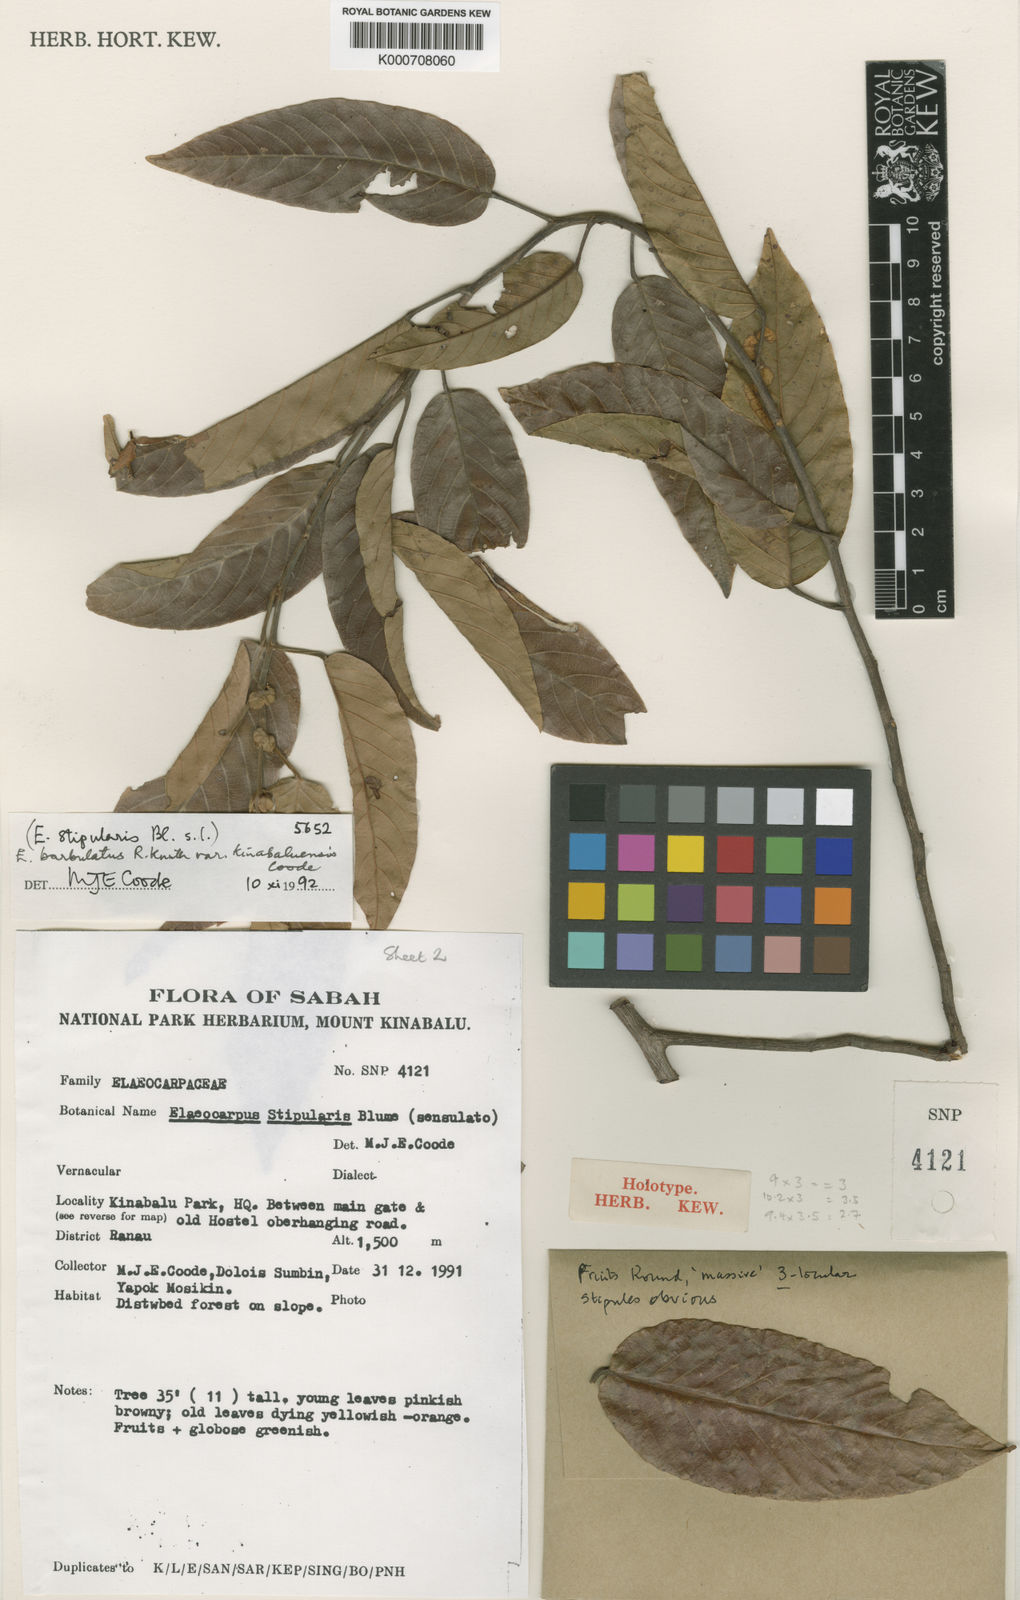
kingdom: Plantae
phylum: Tracheophyta
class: Magnoliopsida
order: Oxalidales
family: Elaeocarpaceae
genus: Elaeocarpus
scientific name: Elaeocarpus barbulatus
